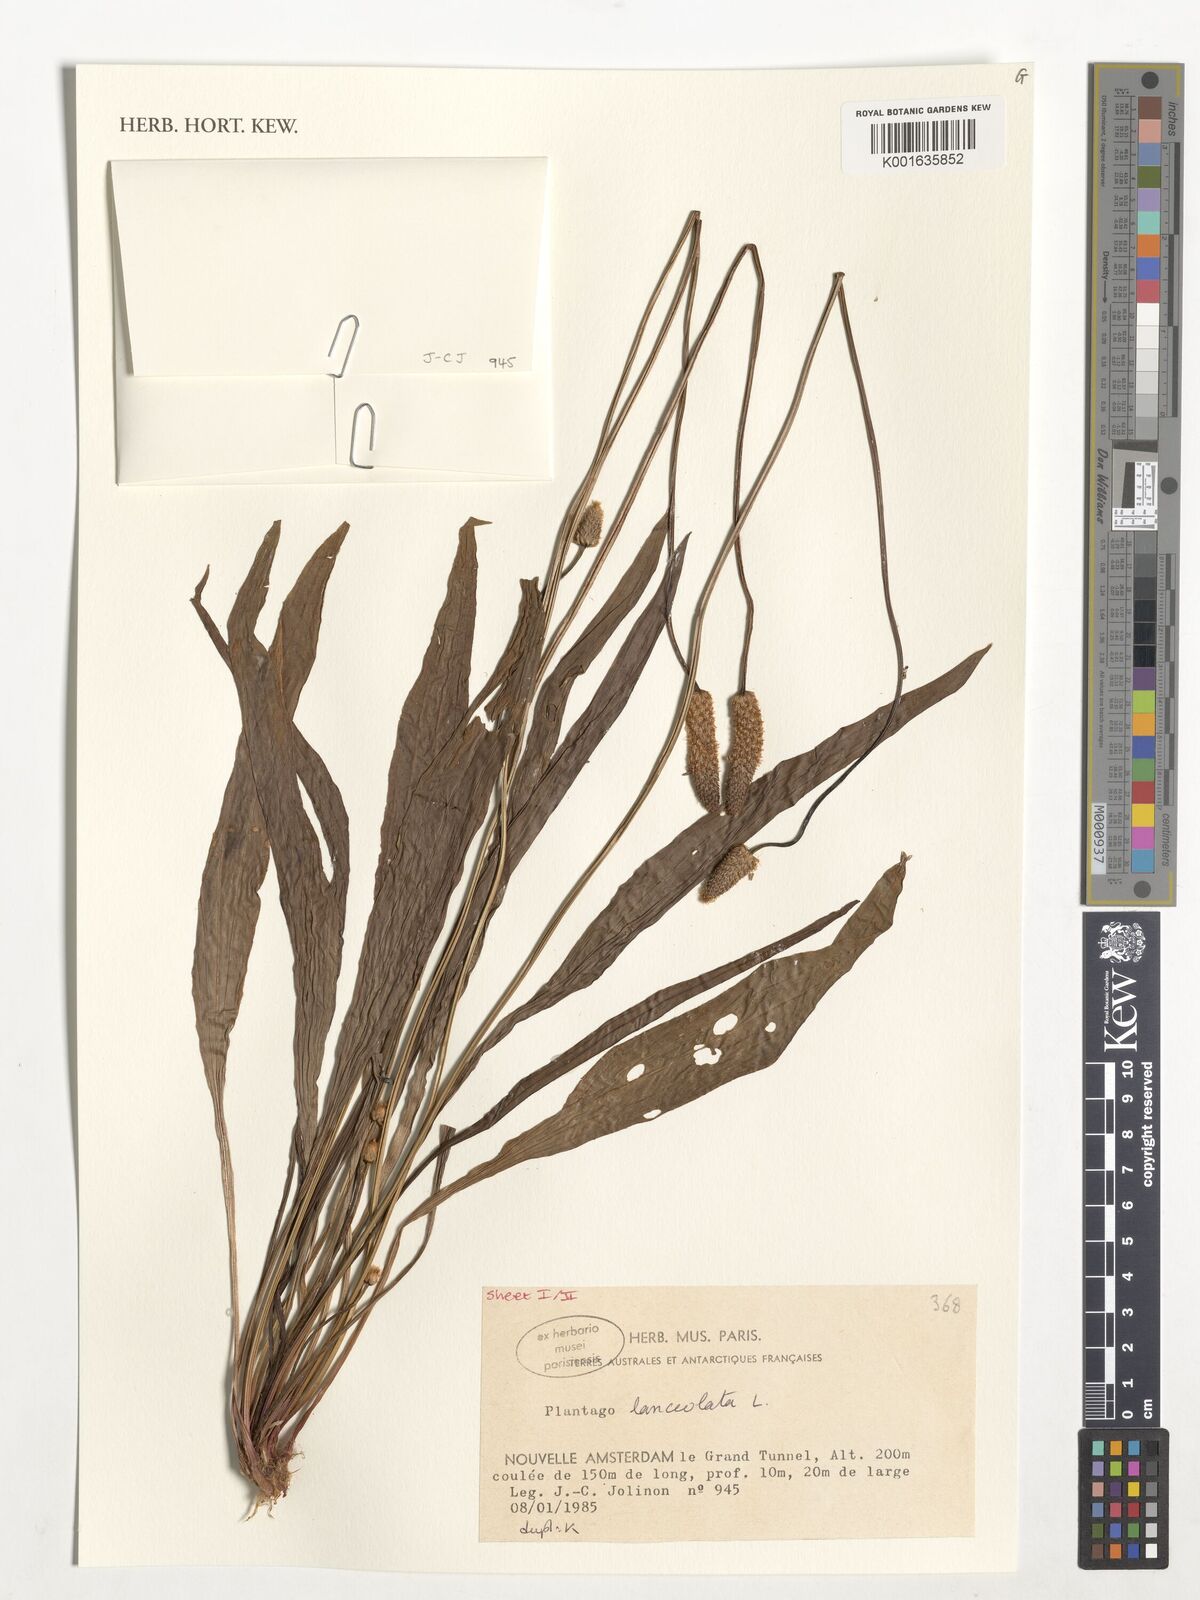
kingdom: Plantae
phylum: Tracheophyta
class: Magnoliopsida
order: Lamiales
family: Plantaginaceae
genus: Plantago
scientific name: Plantago lanceolata
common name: Ribwort plantain
